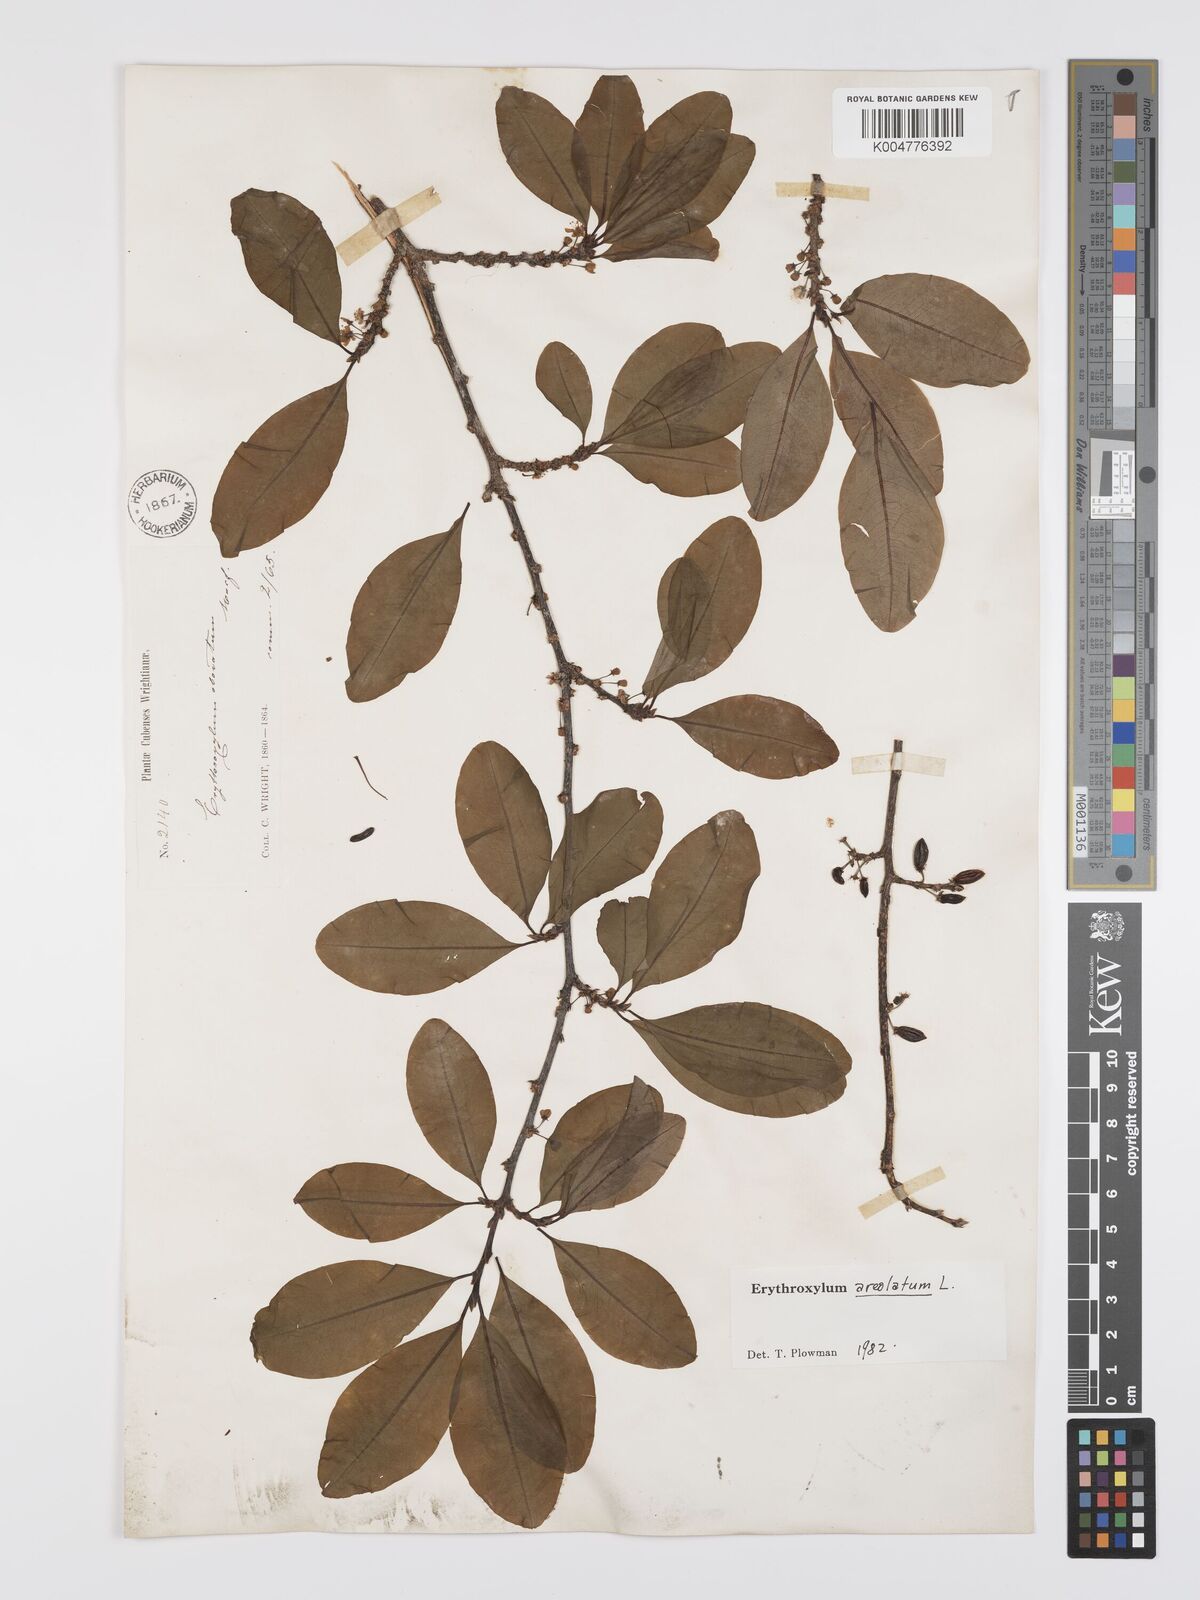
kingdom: Plantae
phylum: Tracheophyta
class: Magnoliopsida
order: Malpighiales
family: Erythroxylaceae
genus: Erythroxylum
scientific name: Erythroxylum areolatum
